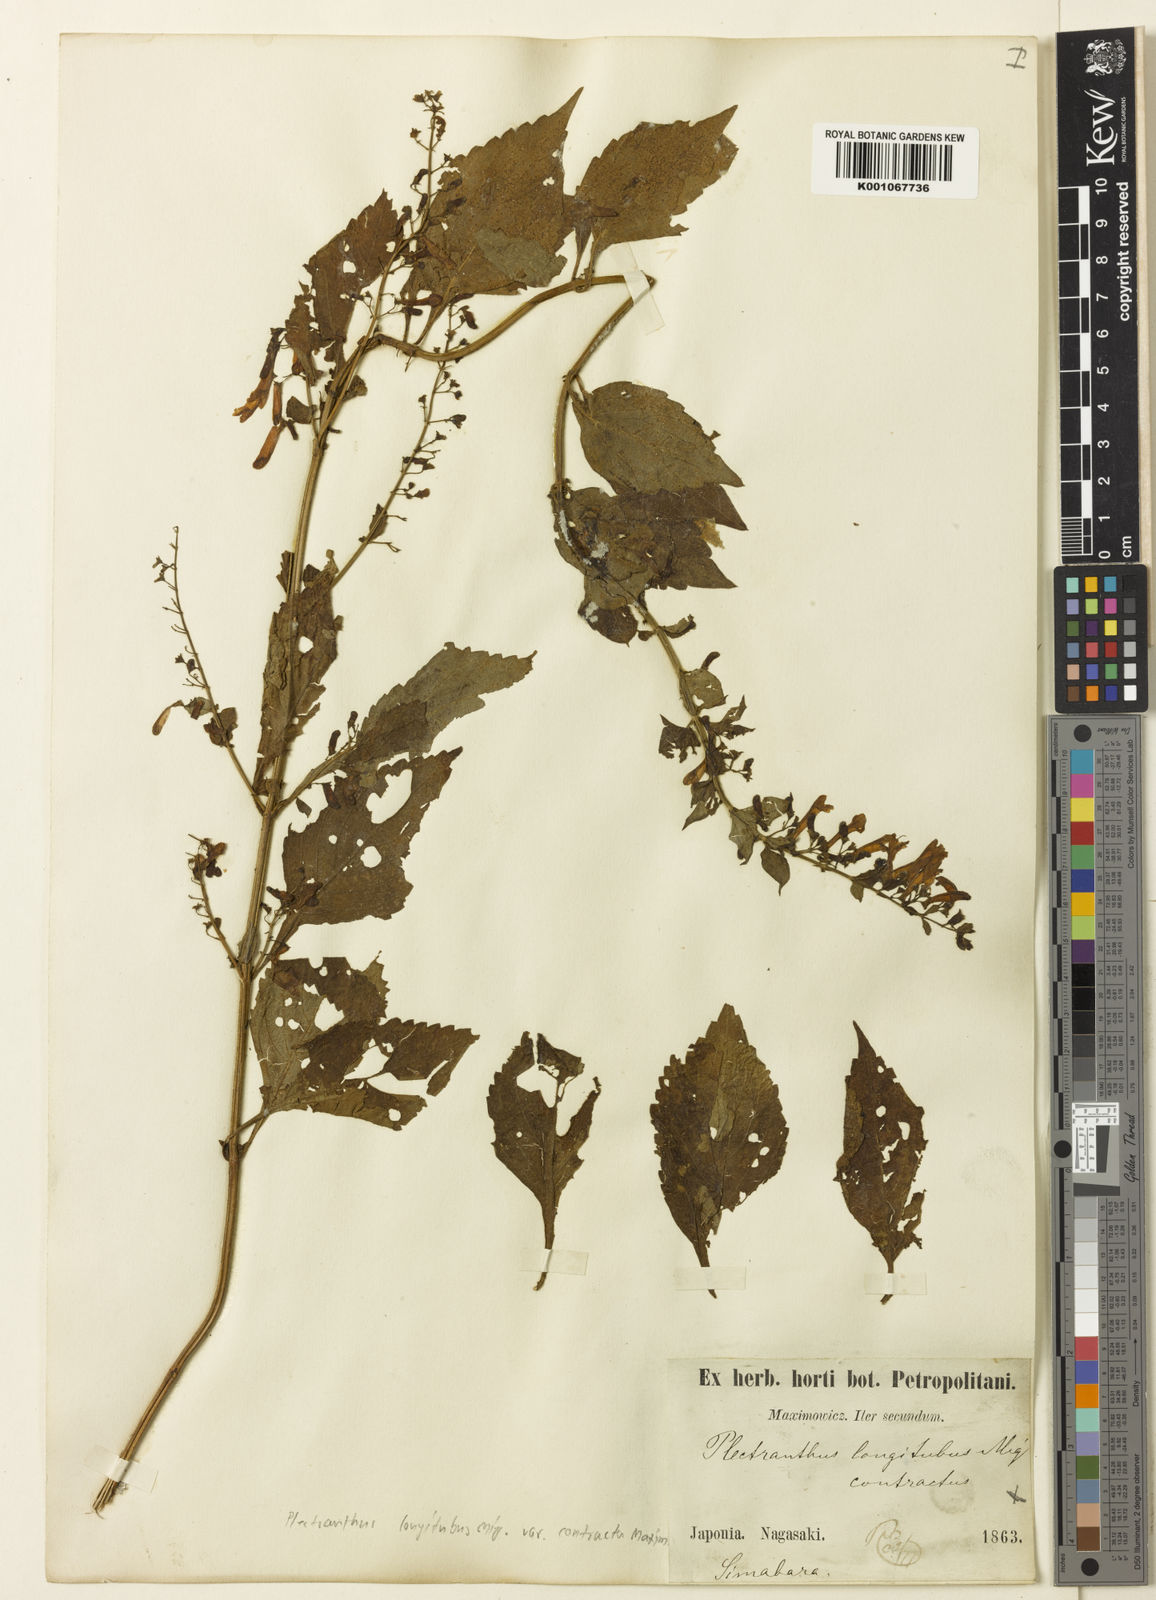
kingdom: Plantae
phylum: Tracheophyta
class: Magnoliopsida
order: Lamiales
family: Lamiaceae
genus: Isodon
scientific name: Isodon
